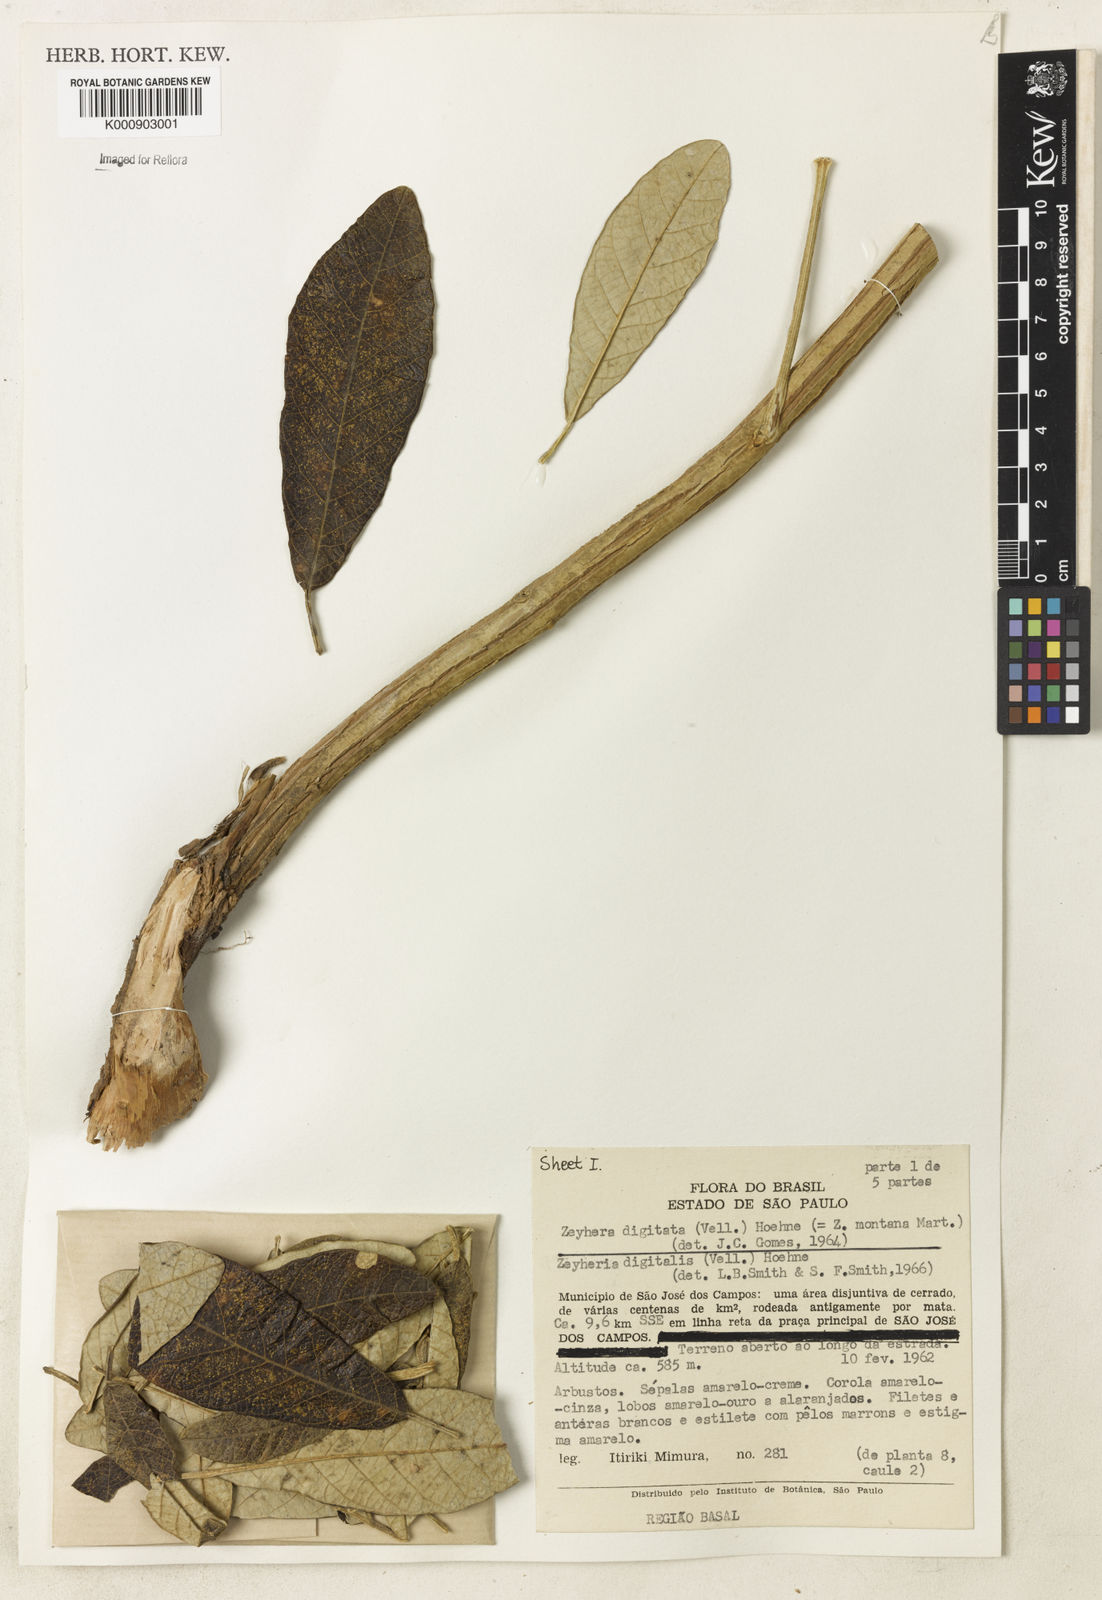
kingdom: Plantae
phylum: Tracheophyta
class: Magnoliopsida
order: Lamiales
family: Bignoniaceae
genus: Zeyheria
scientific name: Zeyheria
